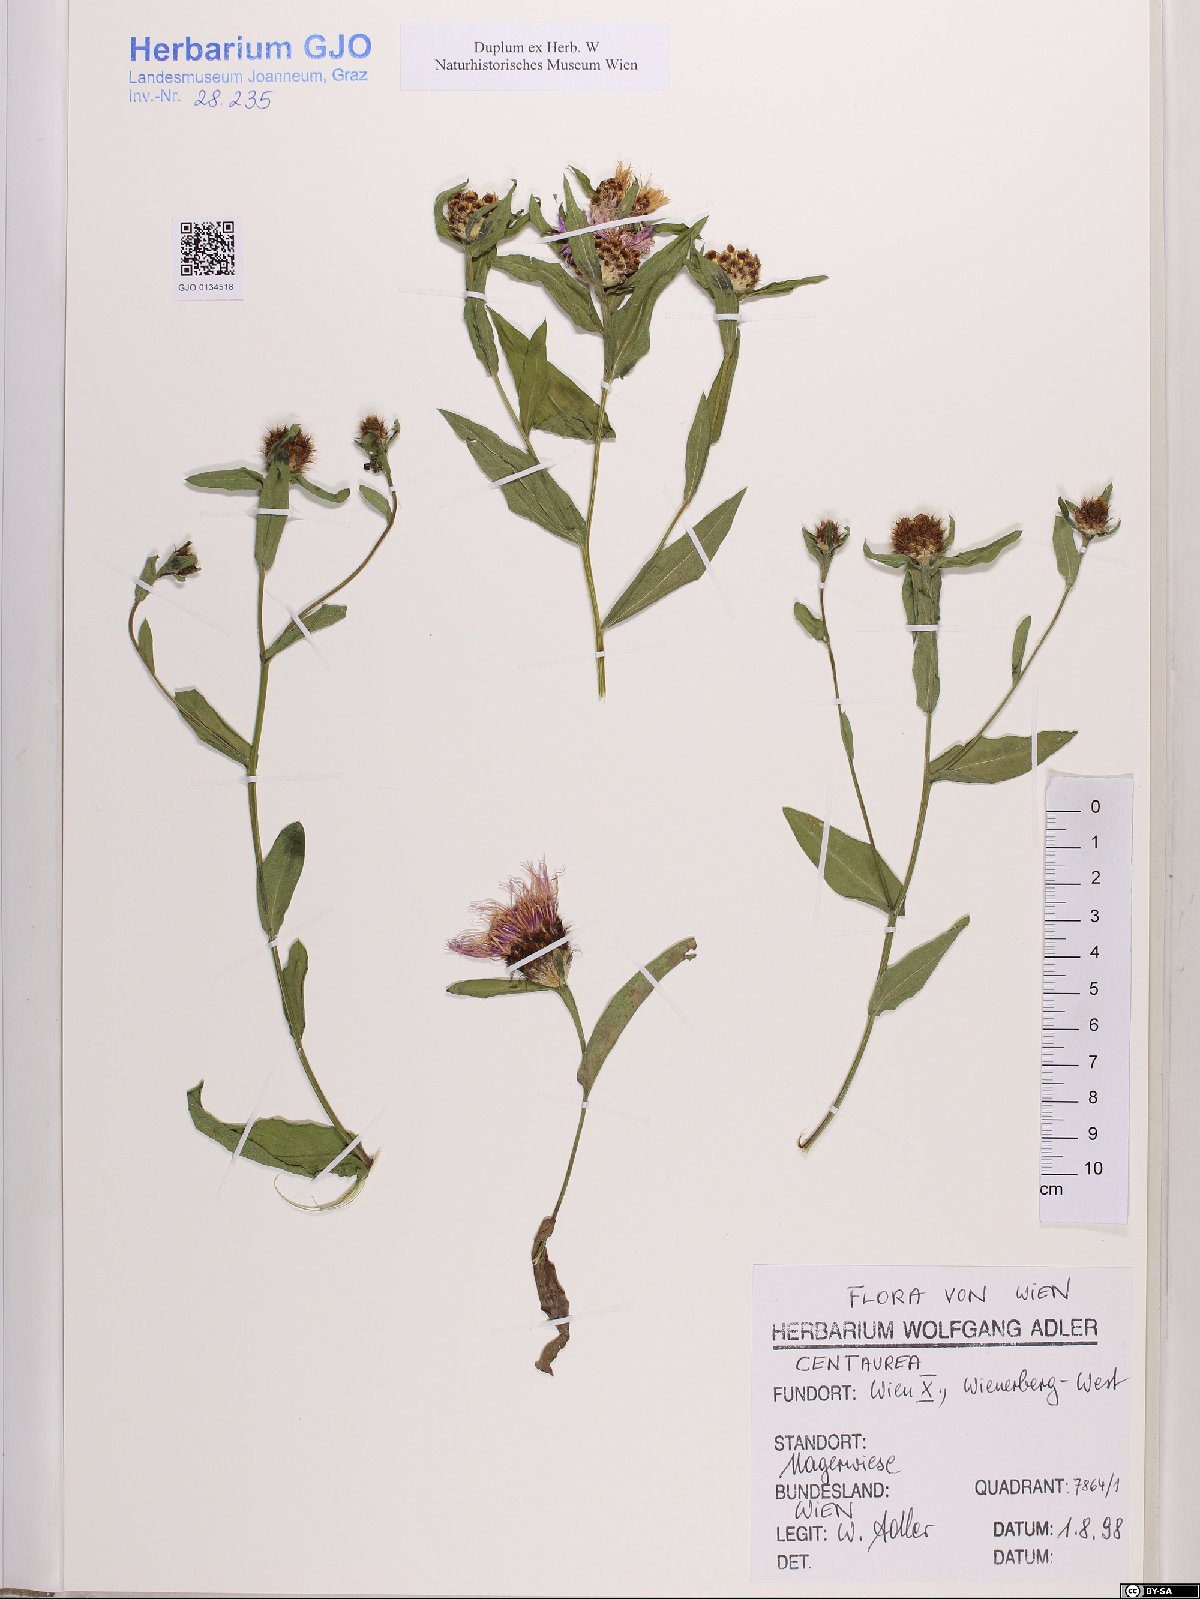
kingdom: Plantae
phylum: Tracheophyta
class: Magnoliopsida
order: Asterales
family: Asteraceae
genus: Centaurea
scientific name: Centaurea
